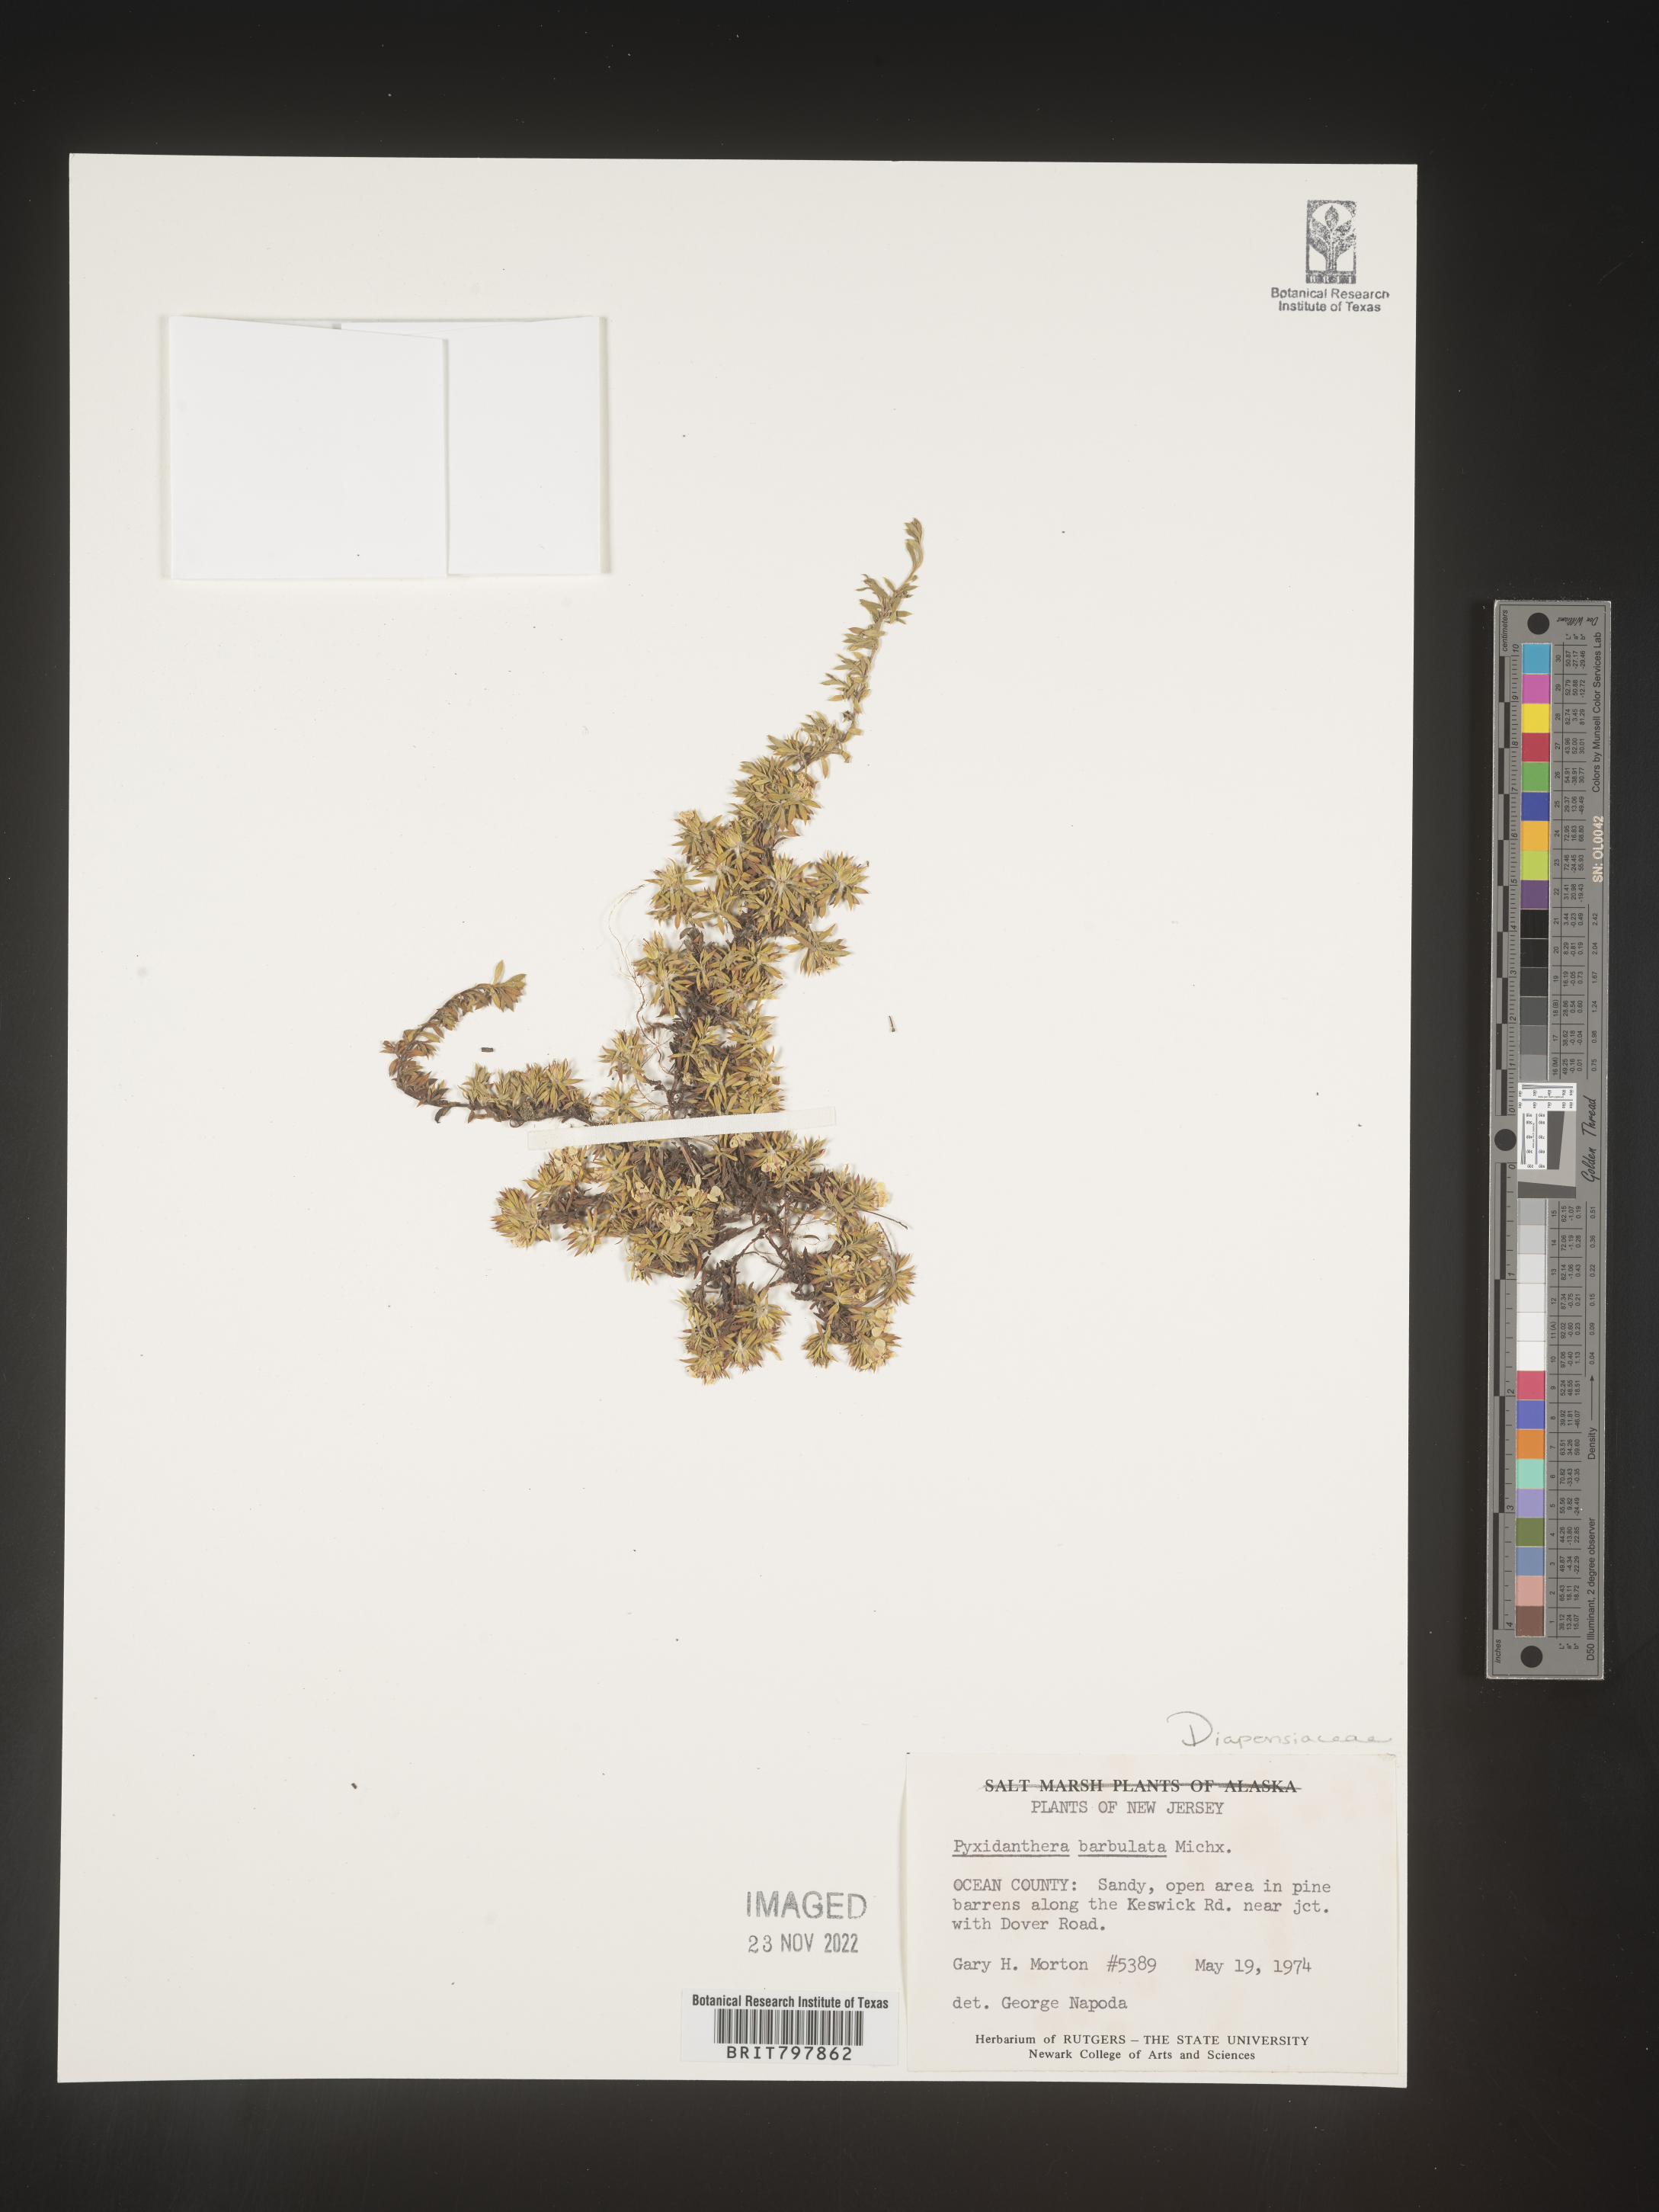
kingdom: Plantae
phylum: Tracheophyta
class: Magnoliopsida
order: Ericales
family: Diapensiaceae
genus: Pyxidanthera
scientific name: Pyxidanthera barbulata
